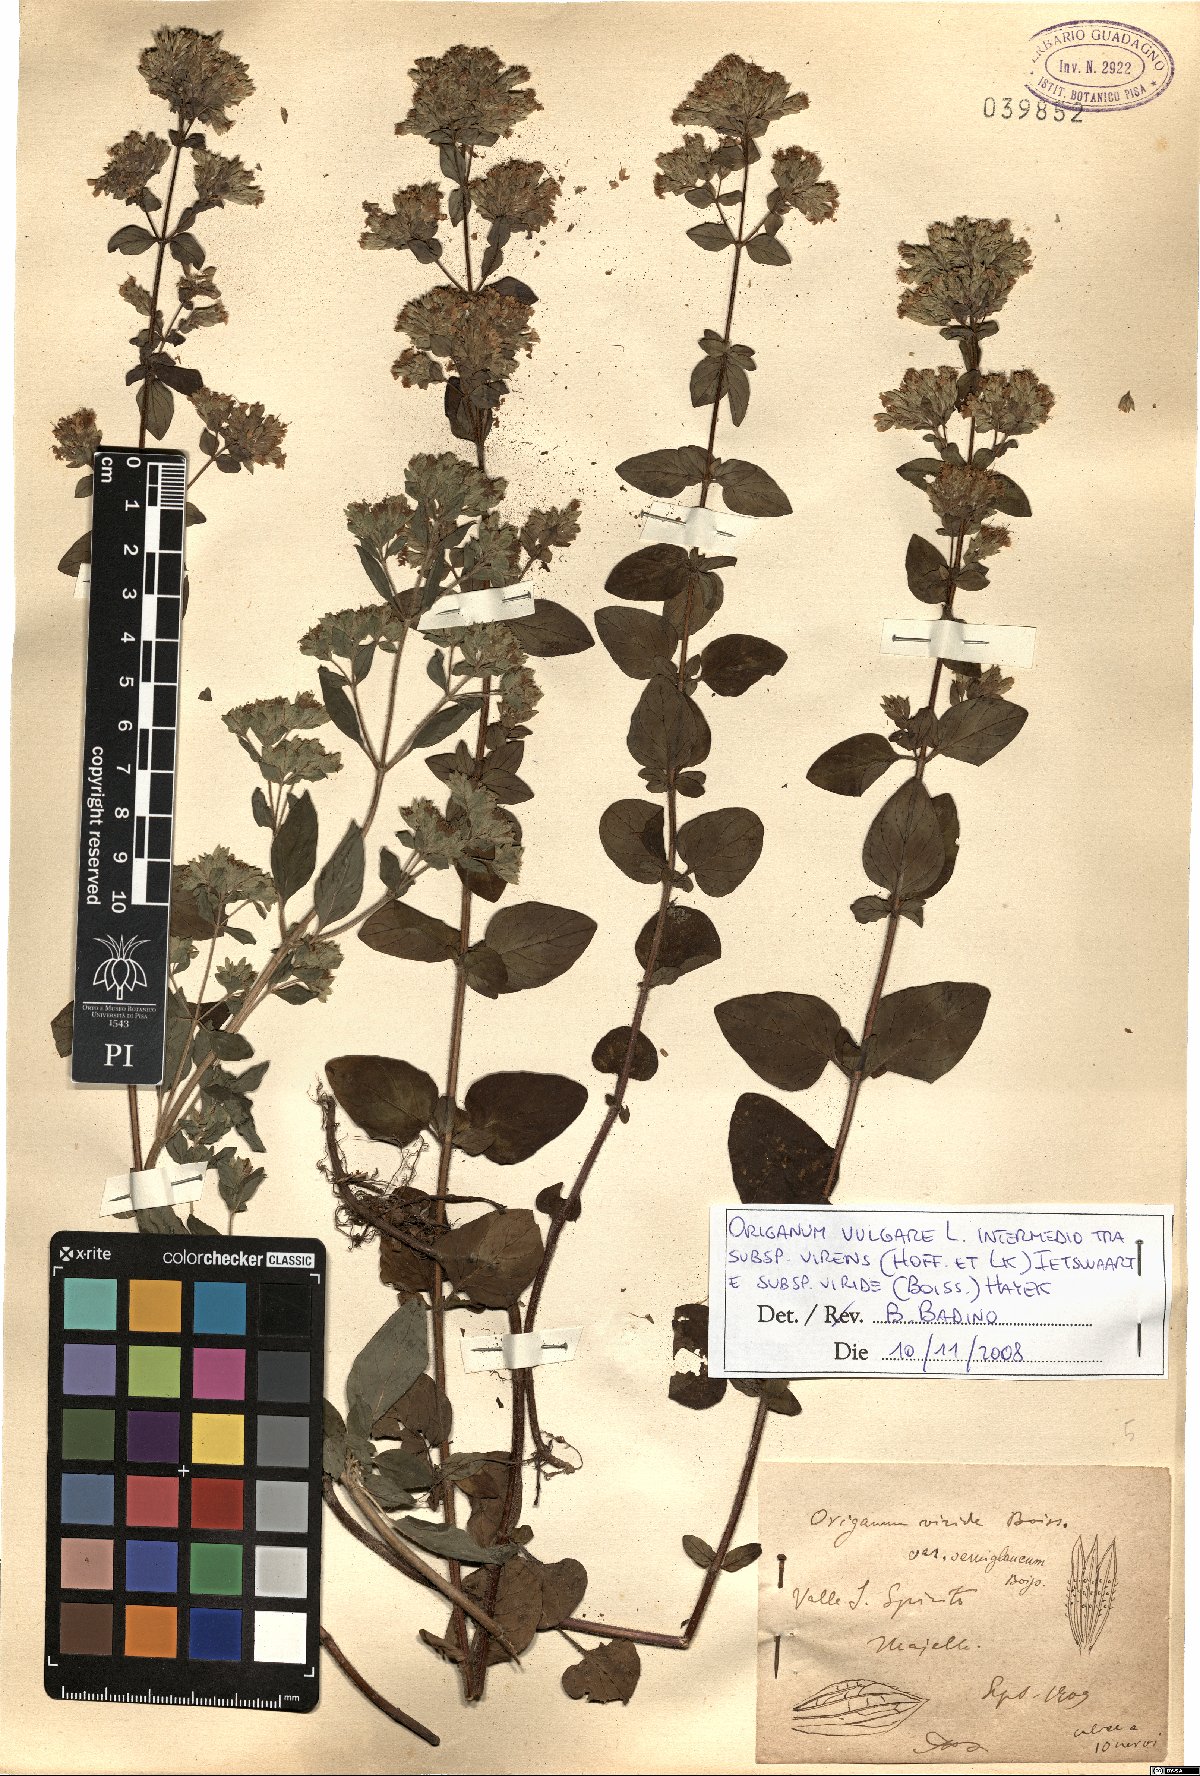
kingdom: Plantae
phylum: Tracheophyta
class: Magnoliopsida
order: Lamiales
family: Lamiaceae
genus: Origanum
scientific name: Origanum vulgare
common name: Wild marjoram
